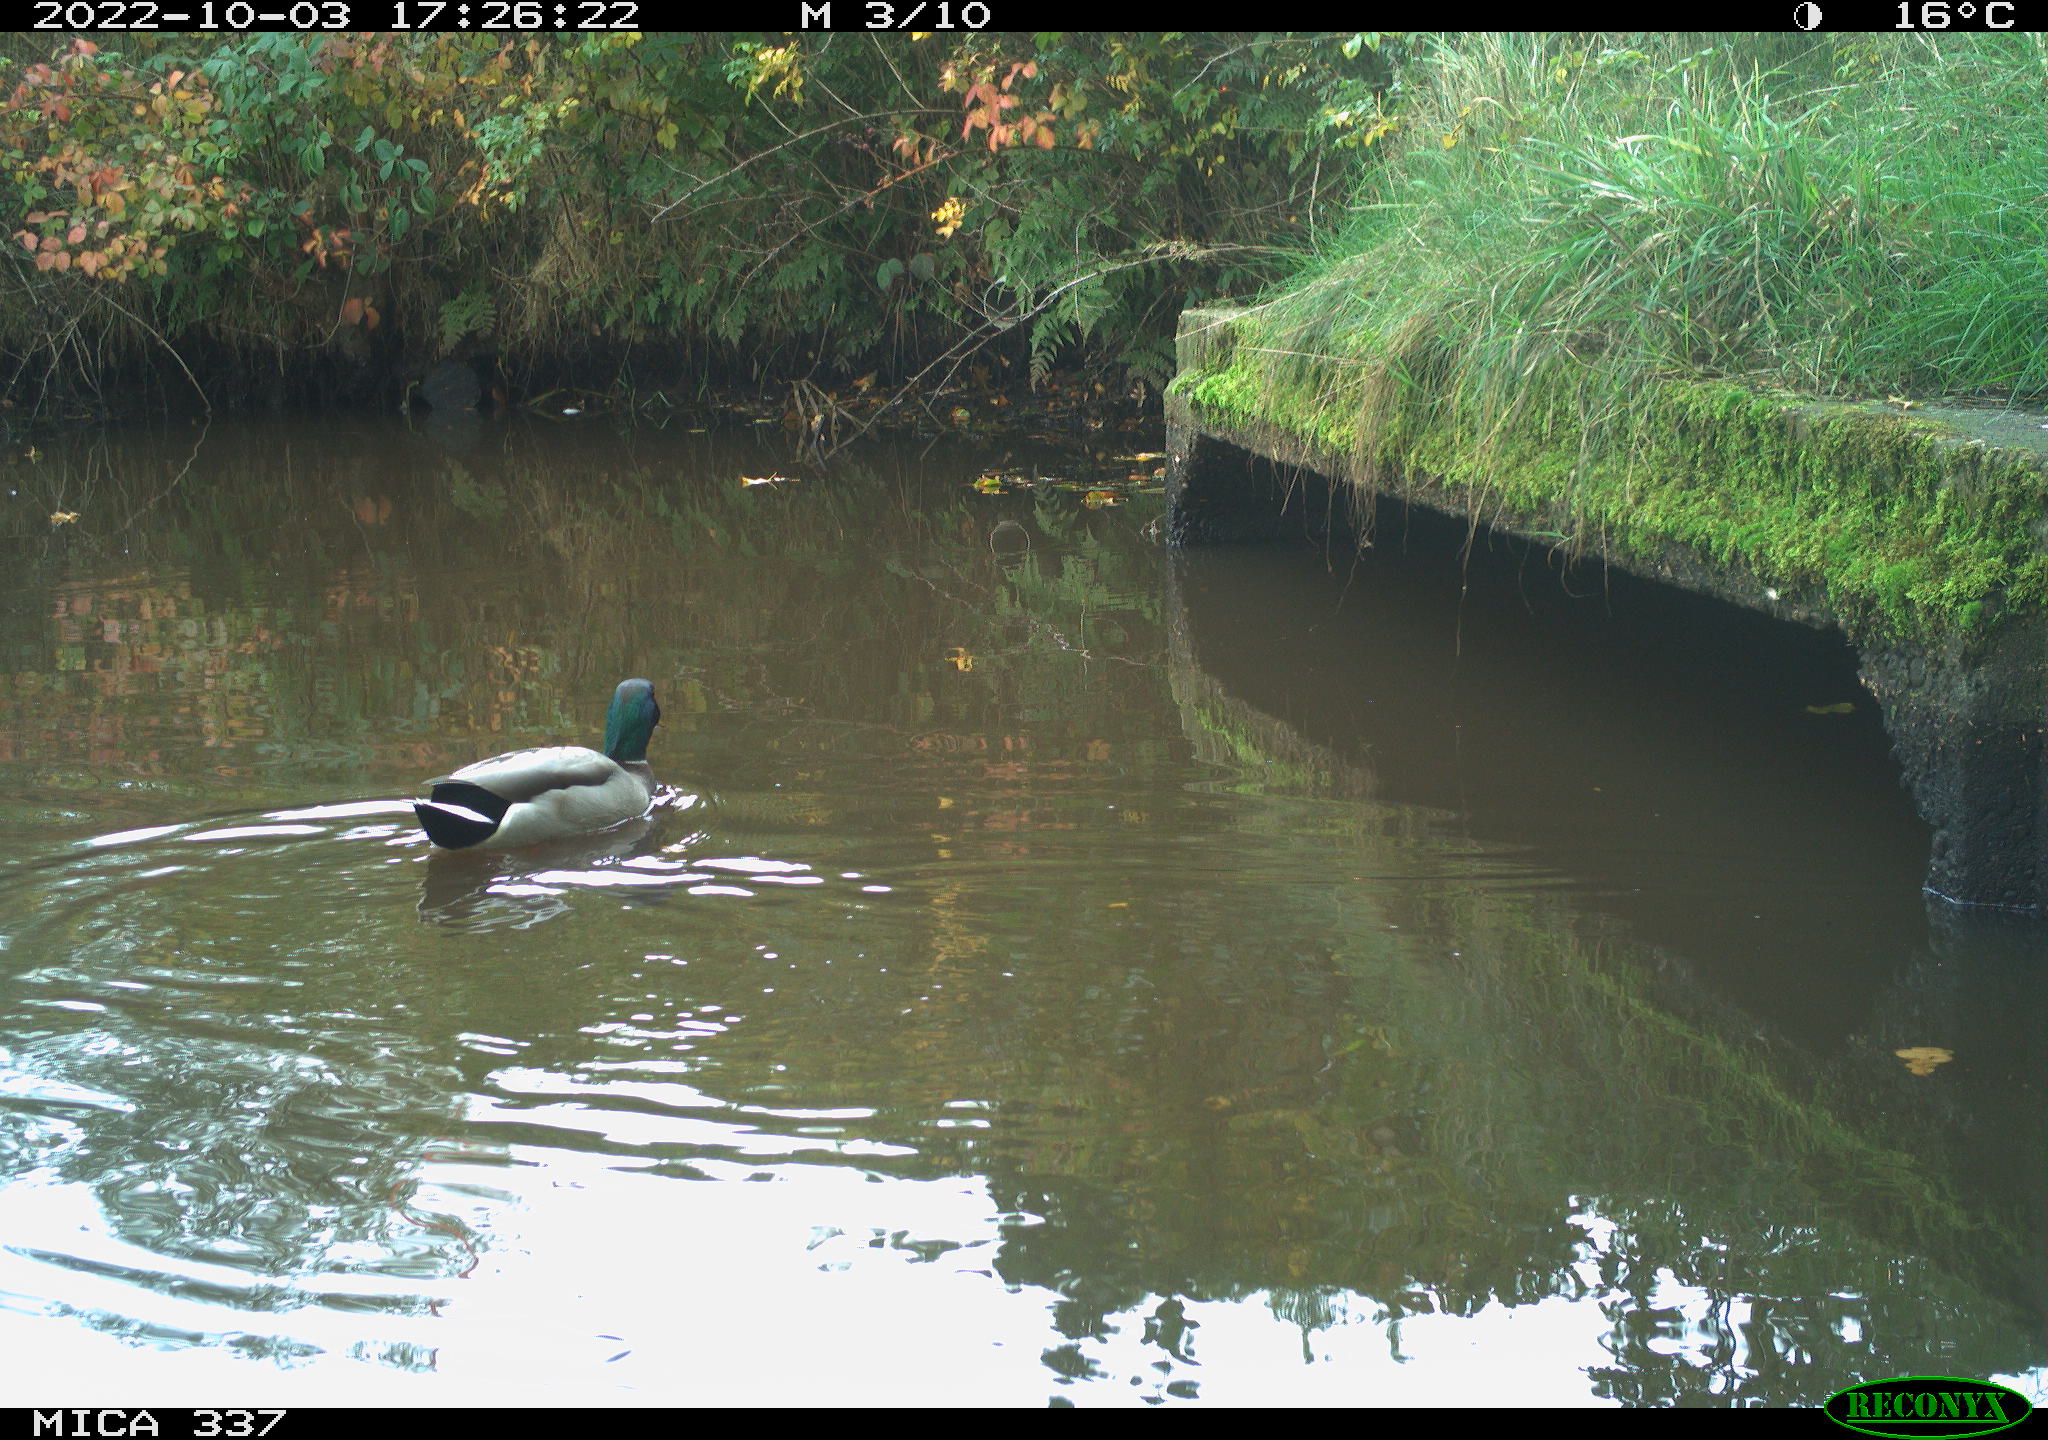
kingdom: Animalia
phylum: Chordata
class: Aves
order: Anseriformes
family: Anatidae
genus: Anas
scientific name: Anas platyrhynchos
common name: Mallard
